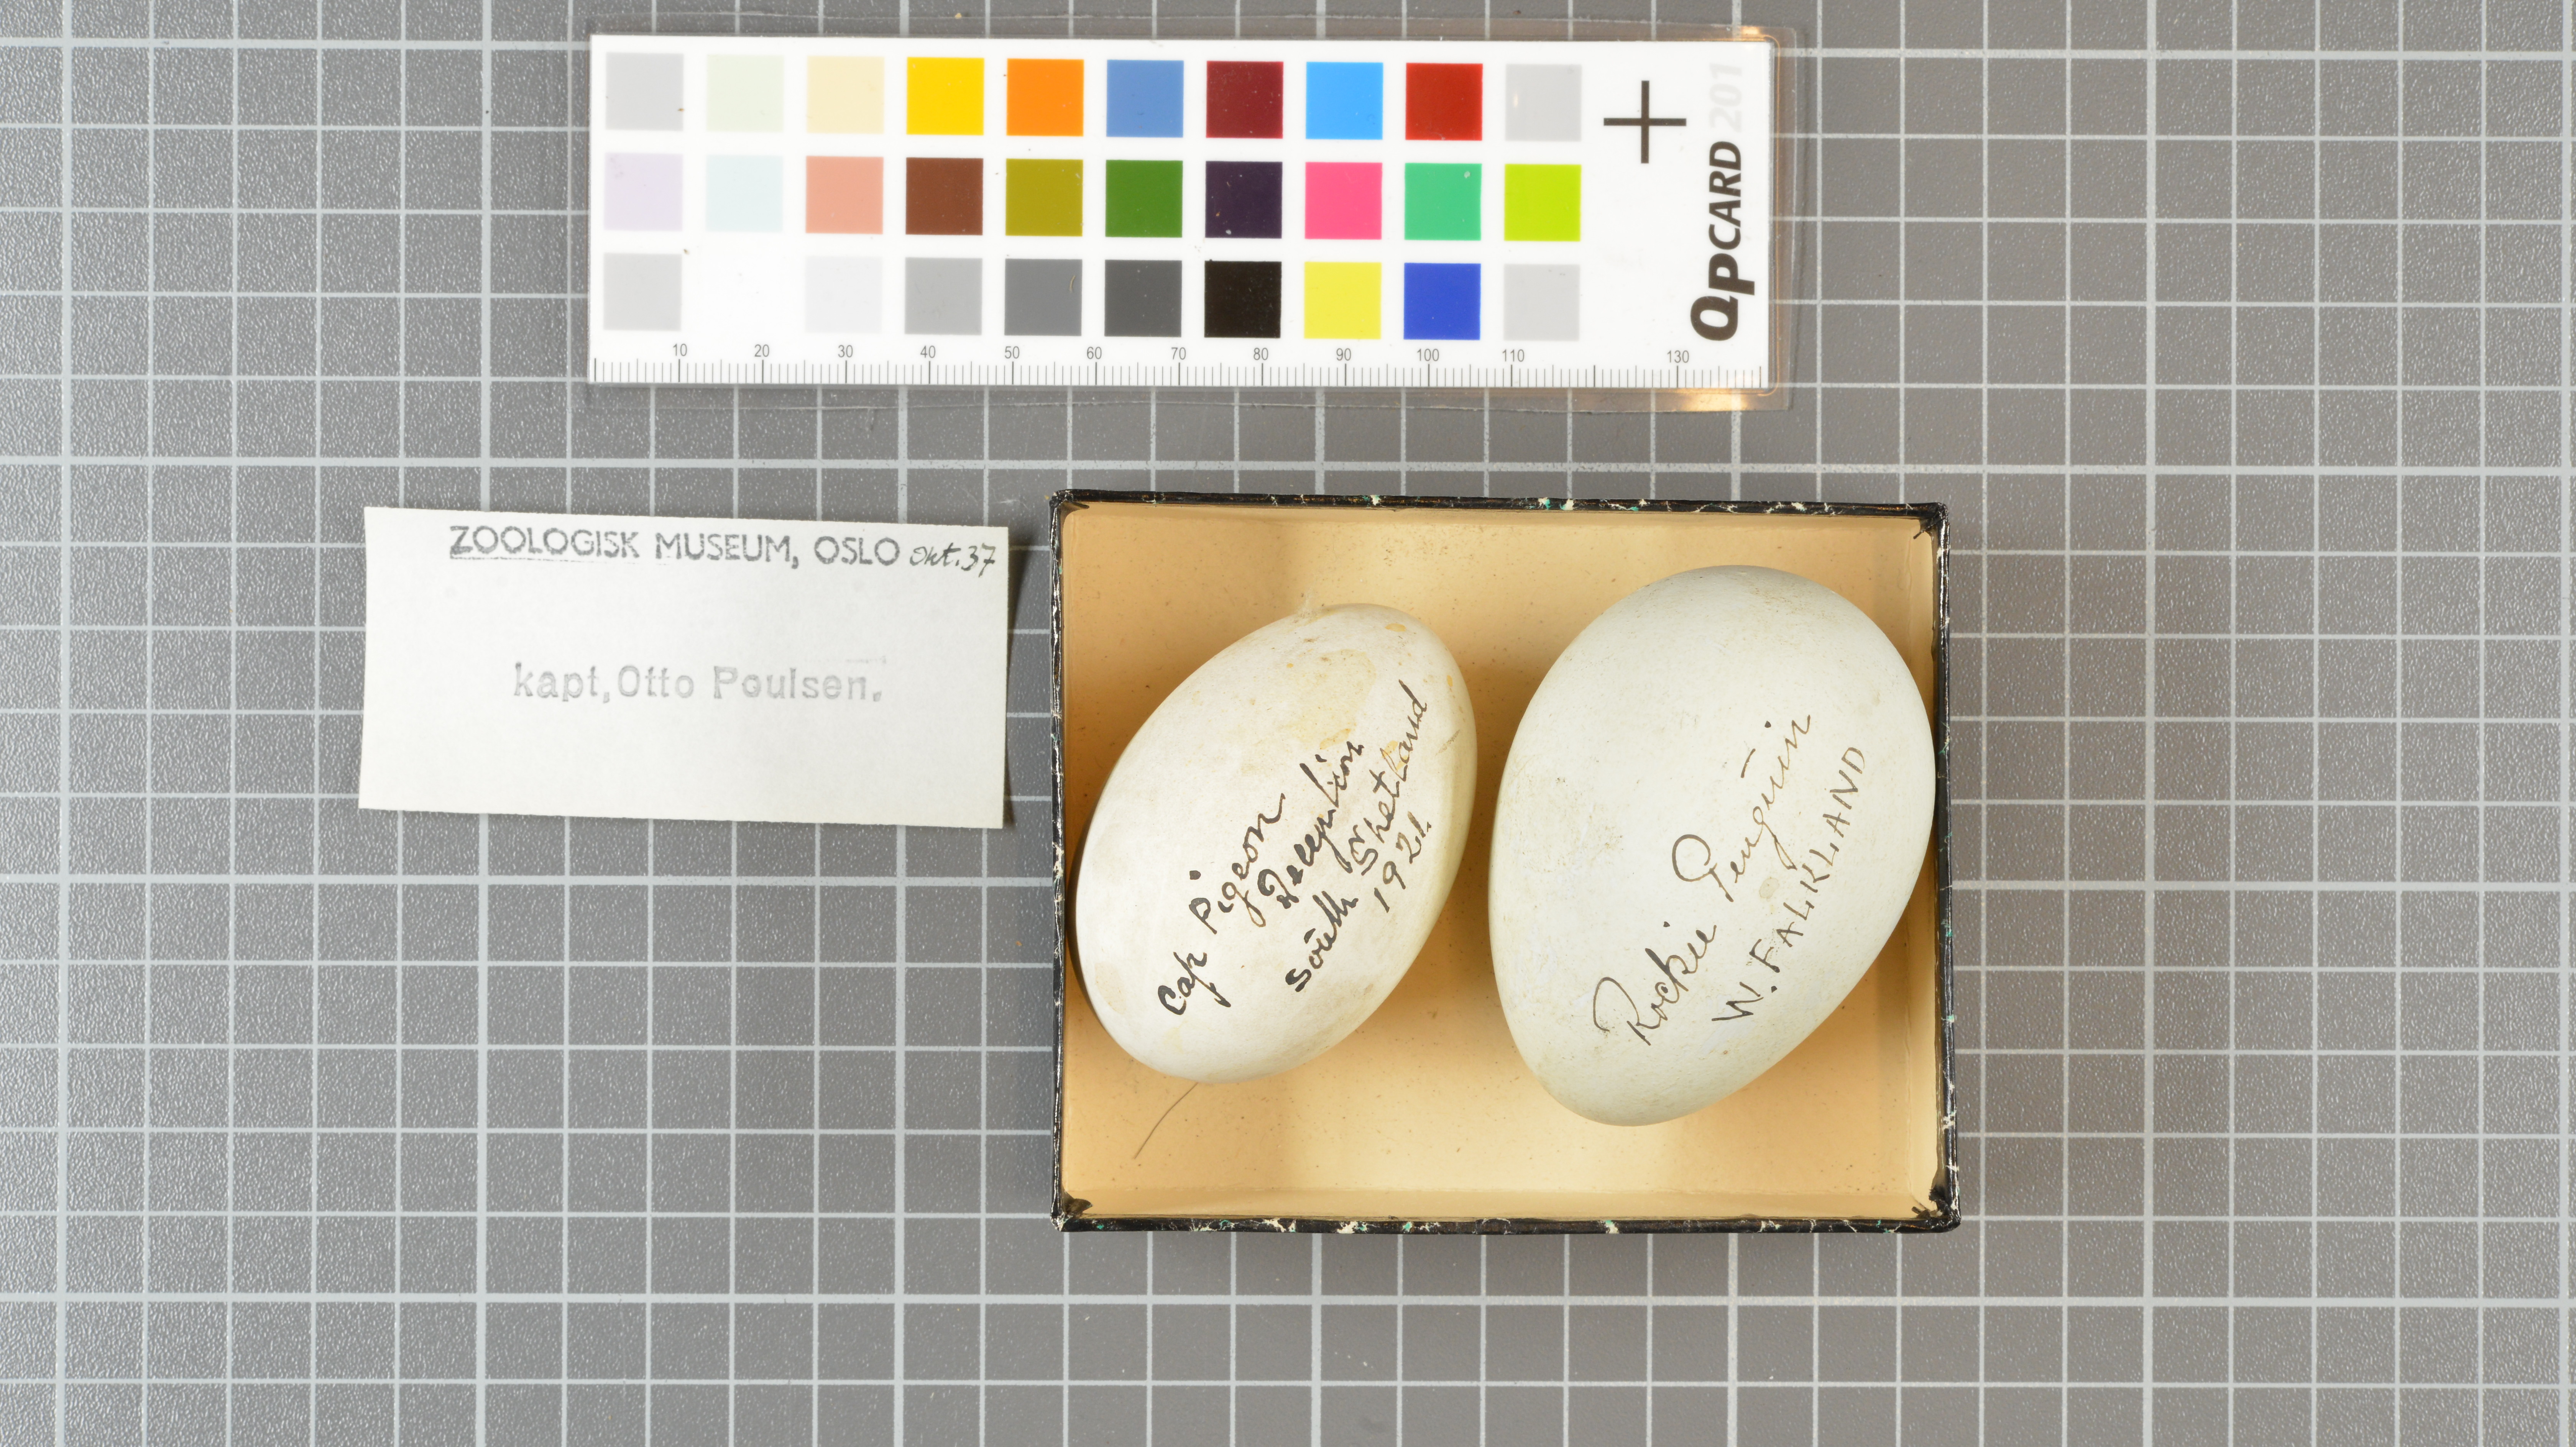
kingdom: Animalia
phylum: Chordata
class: Aves
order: Sphenisciformes
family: Spheniscidae
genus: Eudyptes
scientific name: Eudyptes chrysocome
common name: Southern rockhopper penguin
